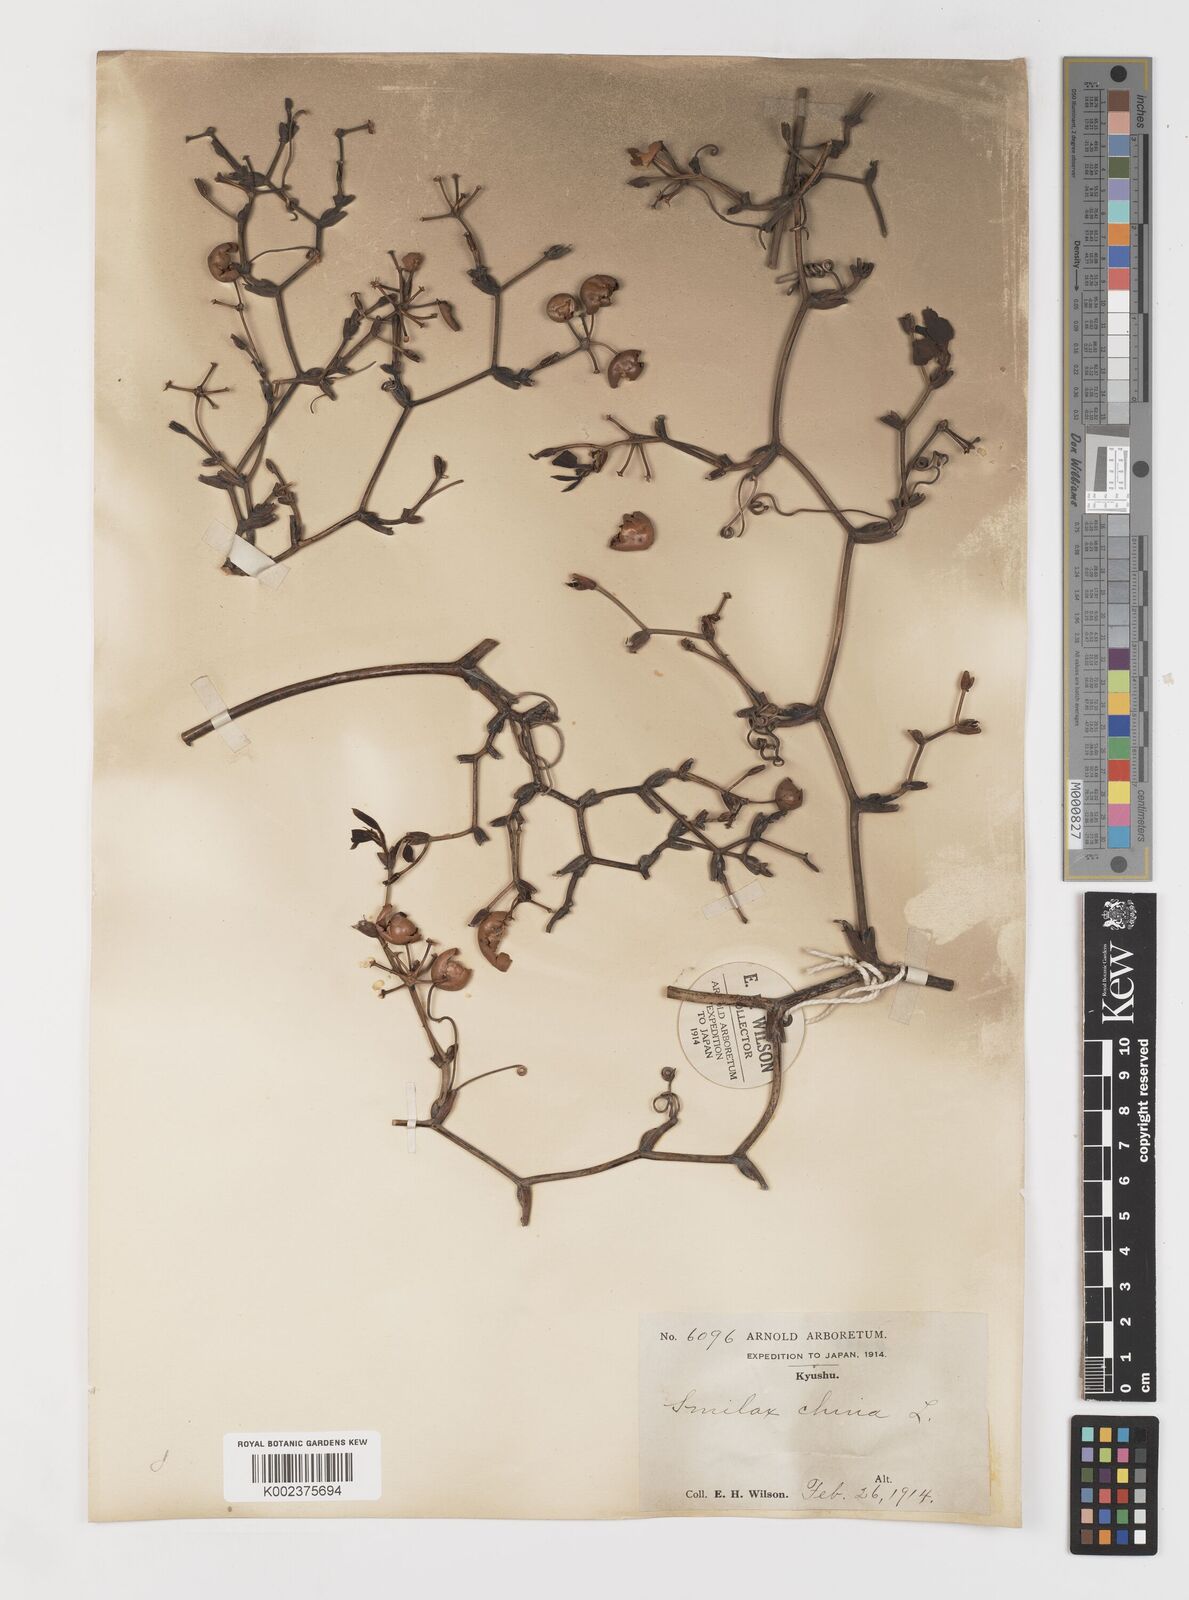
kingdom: Plantae
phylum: Tracheophyta
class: Liliopsida
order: Liliales
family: Smilacaceae
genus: Smilax
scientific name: Smilax china
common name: Chinaroot
